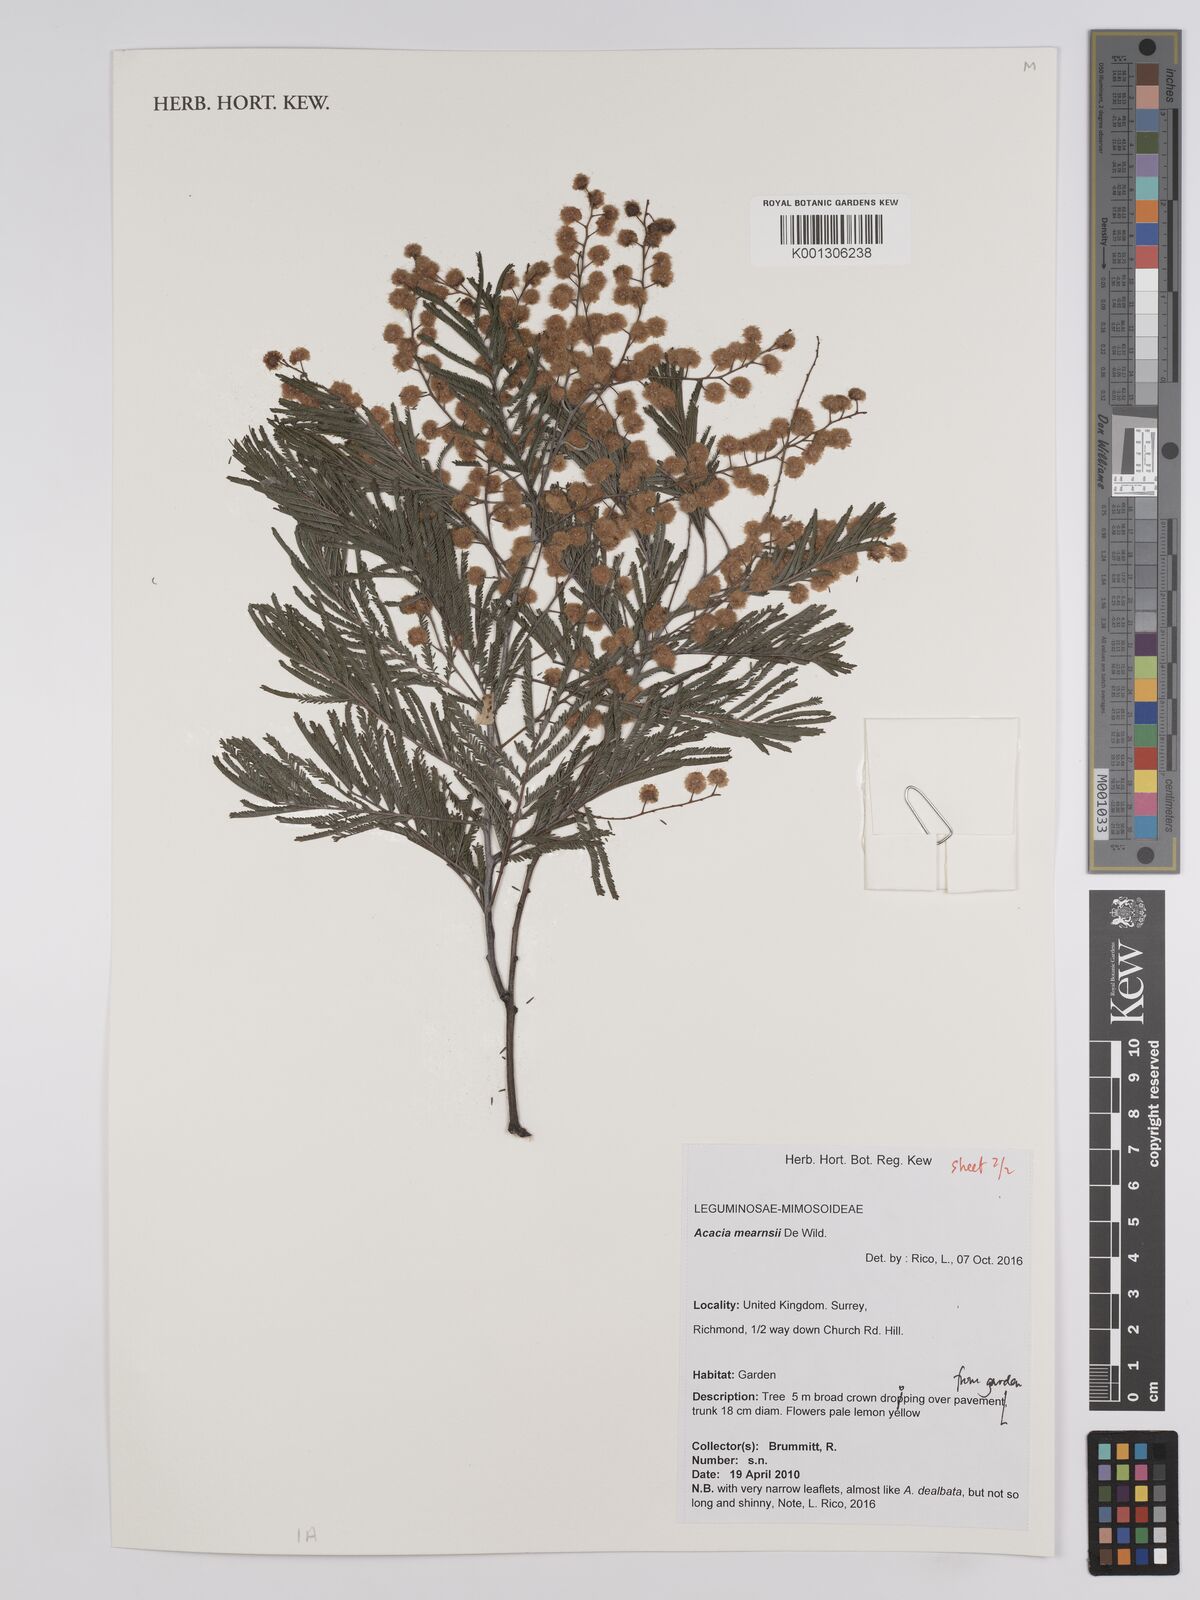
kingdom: Plantae
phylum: Tracheophyta
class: Magnoliopsida
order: Fabales
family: Fabaceae
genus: Acacia
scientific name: Acacia mearnsii
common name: Black wattle
